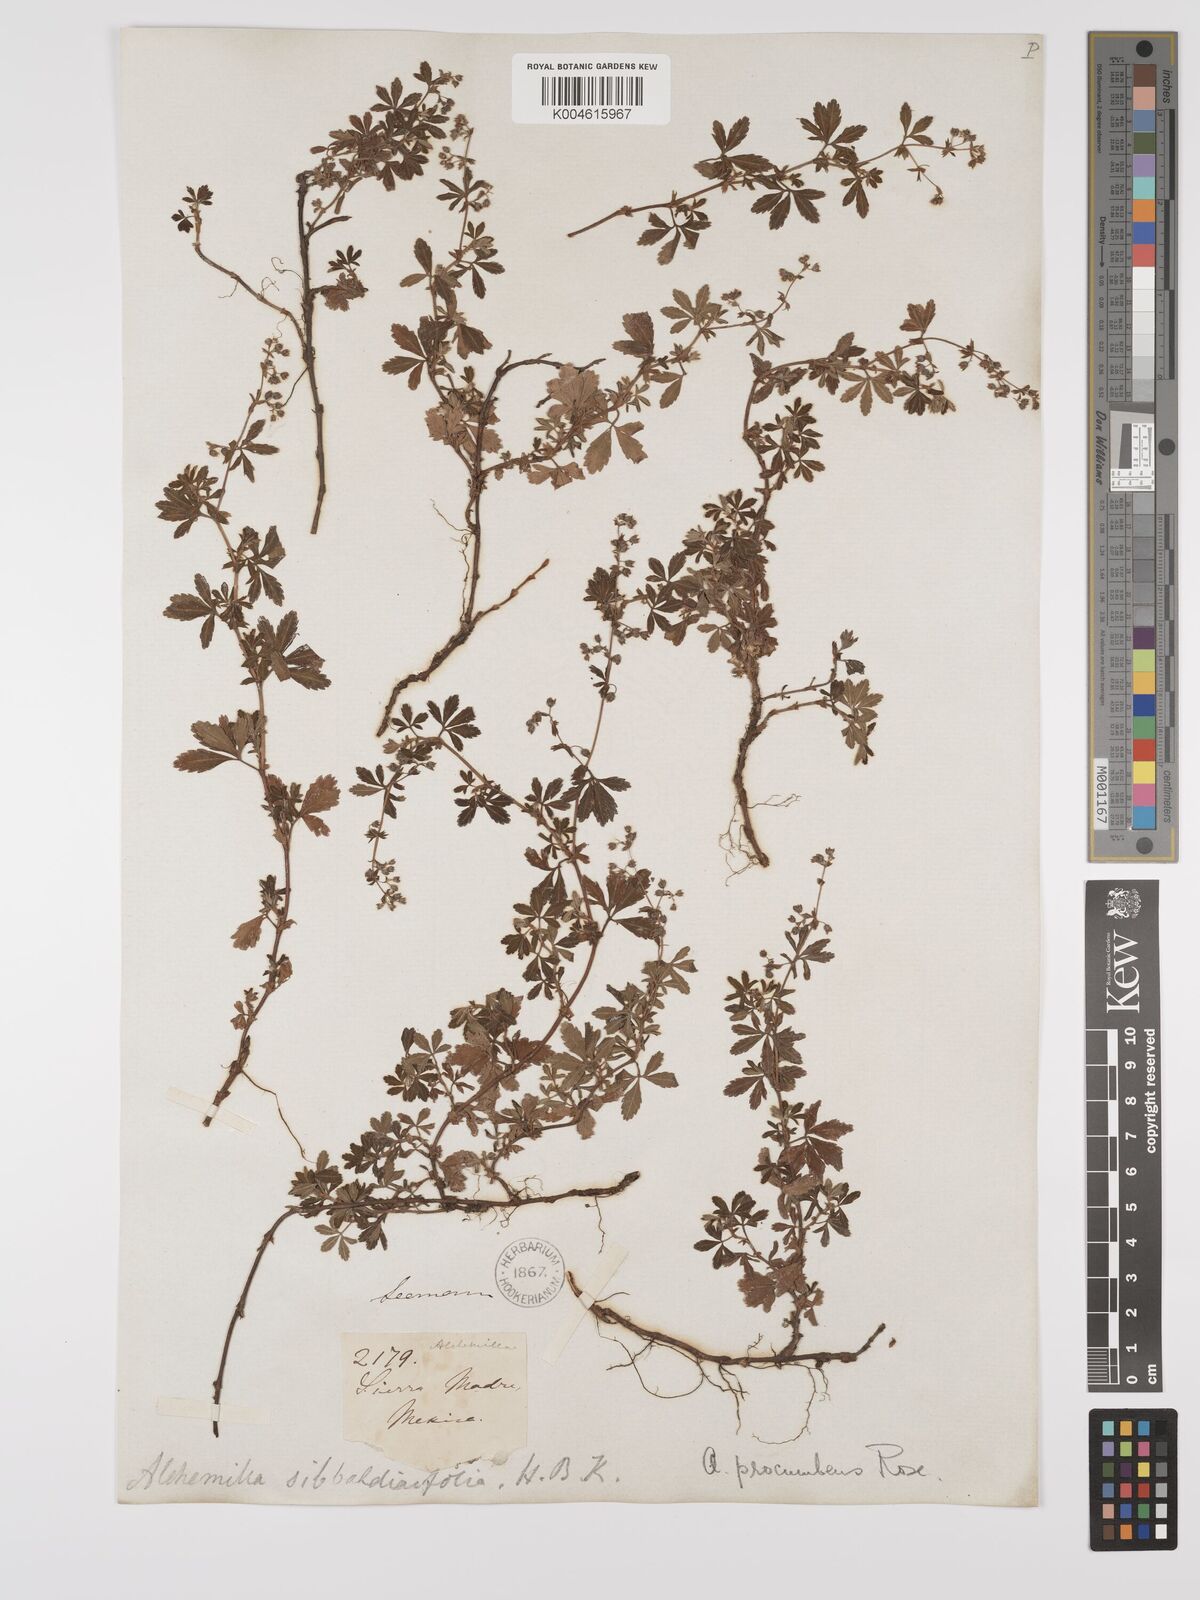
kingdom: Plantae
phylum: Tracheophyta
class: Magnoliopsida
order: Rosales
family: Rosaceae
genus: Lachemilla
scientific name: Lachemilla procumbens
